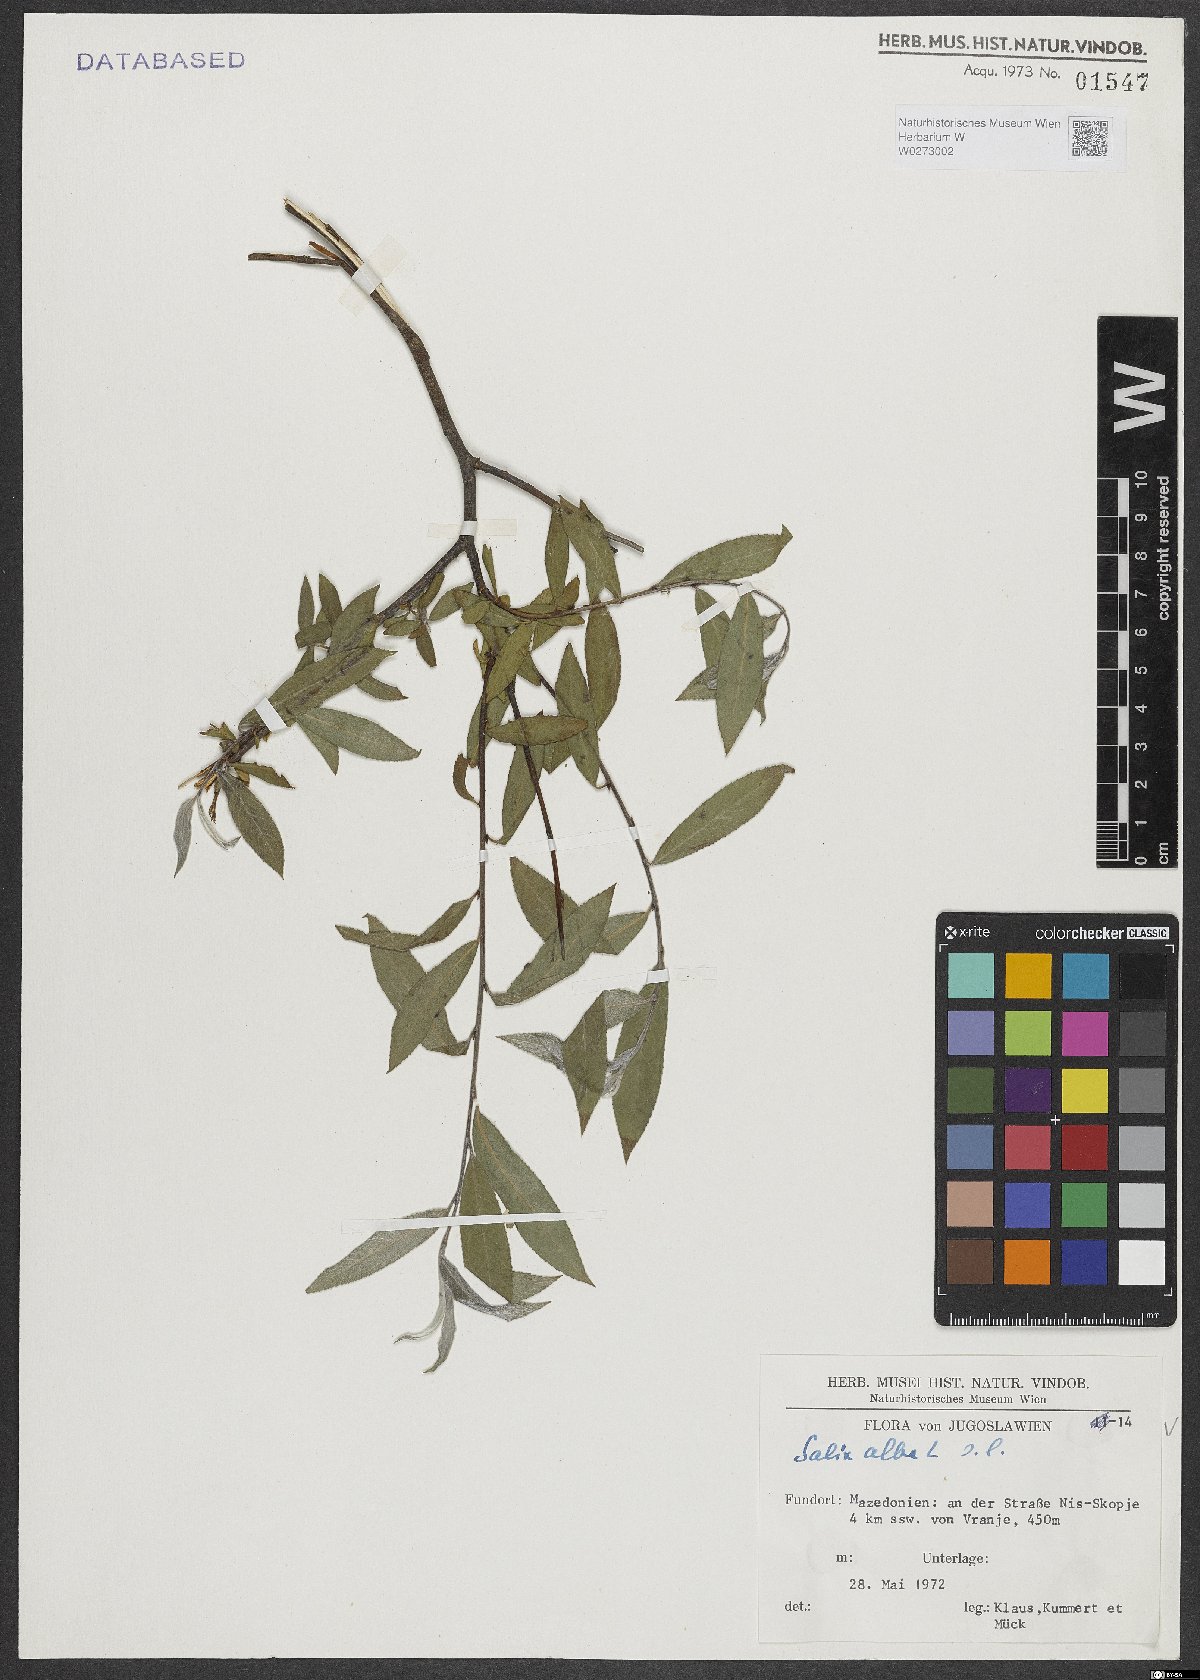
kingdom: Plantae
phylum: Tracheophyta
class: Magnoliopsida
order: Malpighiales
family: Salicaceae
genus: Salix
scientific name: Salix alba
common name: White willow
